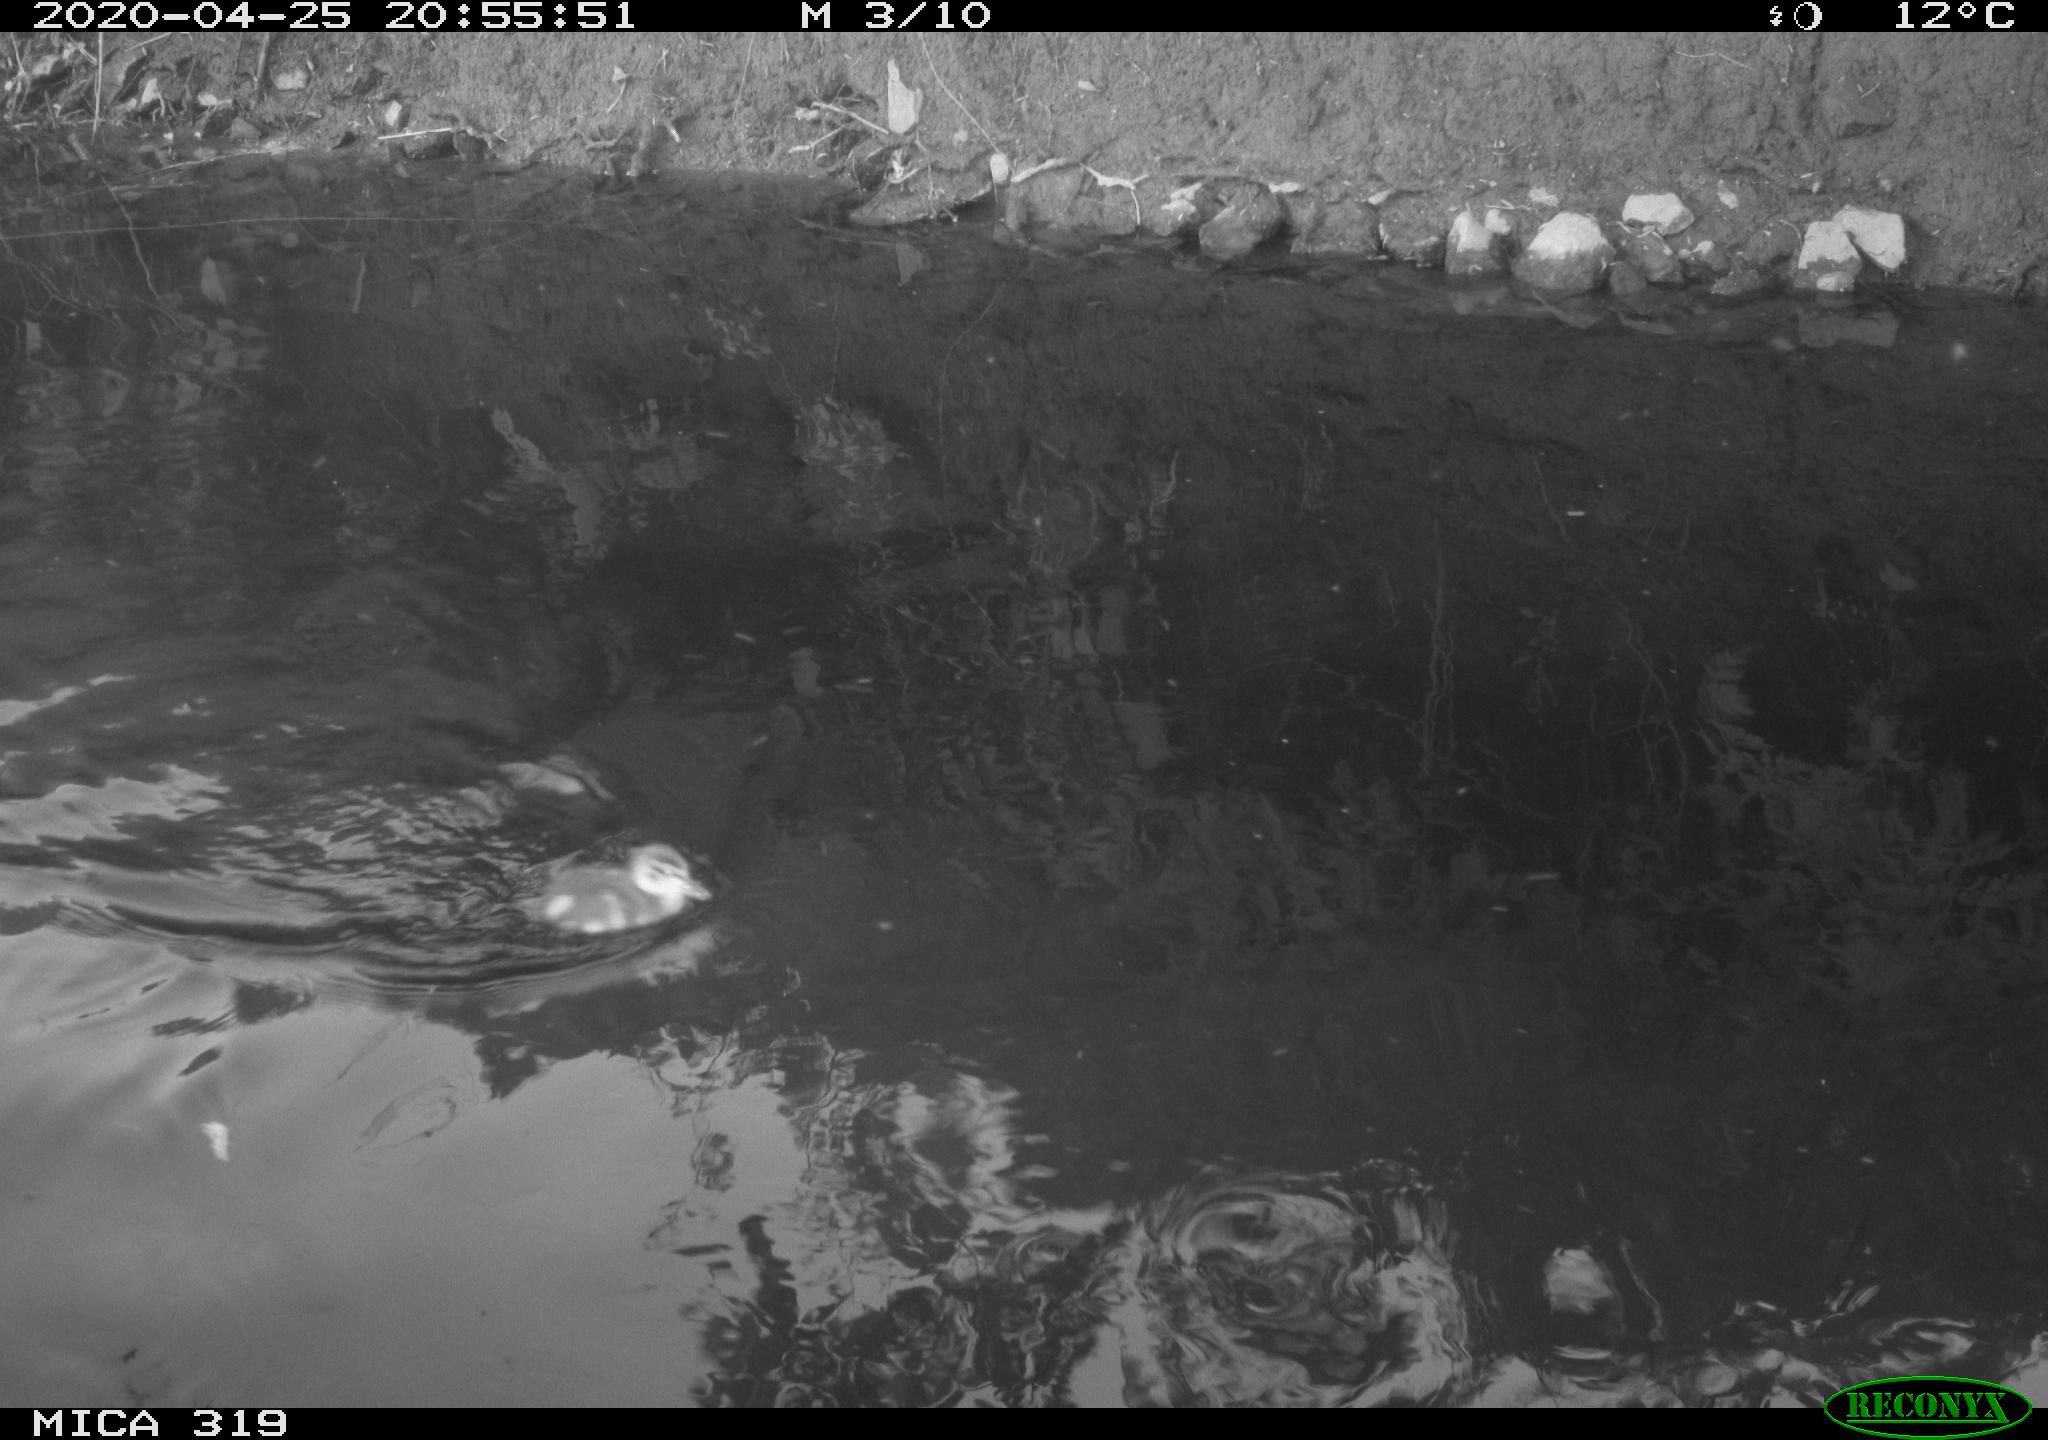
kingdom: Animalia
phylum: Chordata
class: Aves
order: Anseriformes
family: Anatidae
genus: Anas
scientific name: Anas platyrhynchos
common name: Mallard
